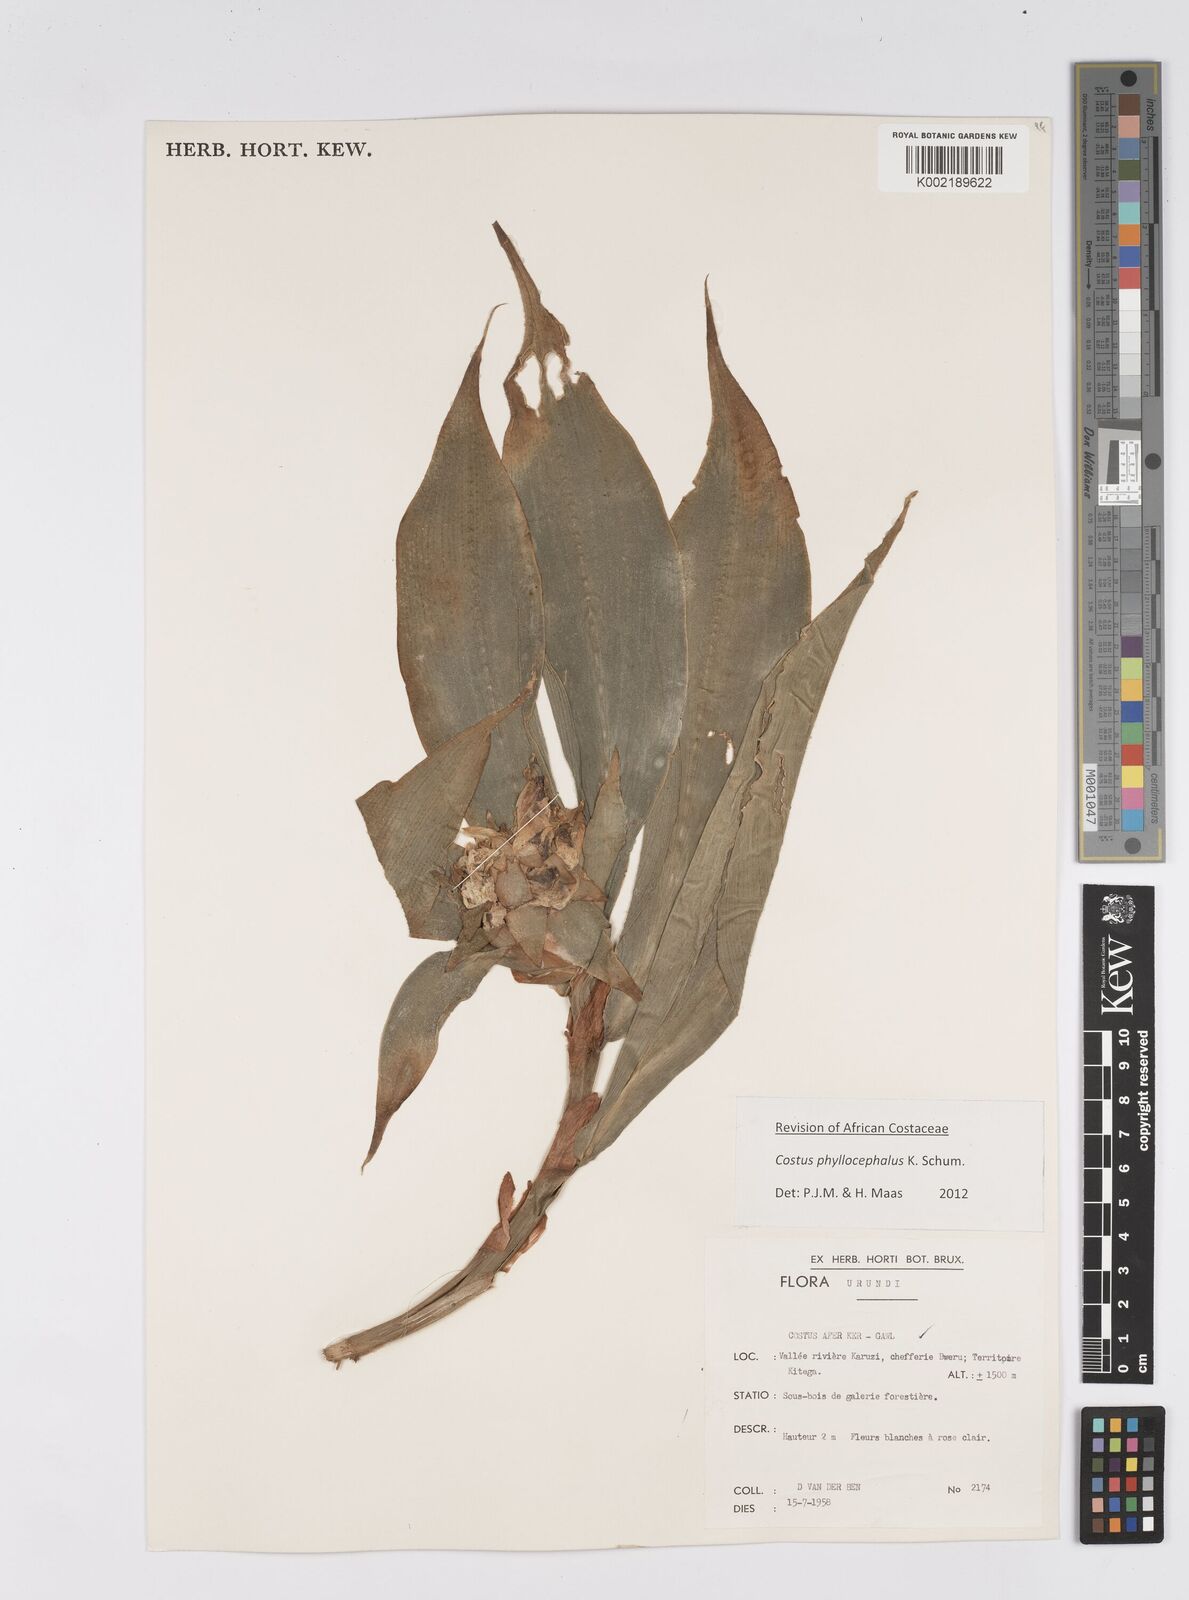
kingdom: Plantae
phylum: Tracheophyta
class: Liliopsida
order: Zingiberales
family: Costaceae
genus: Costus
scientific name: Costus phyllocephalus
